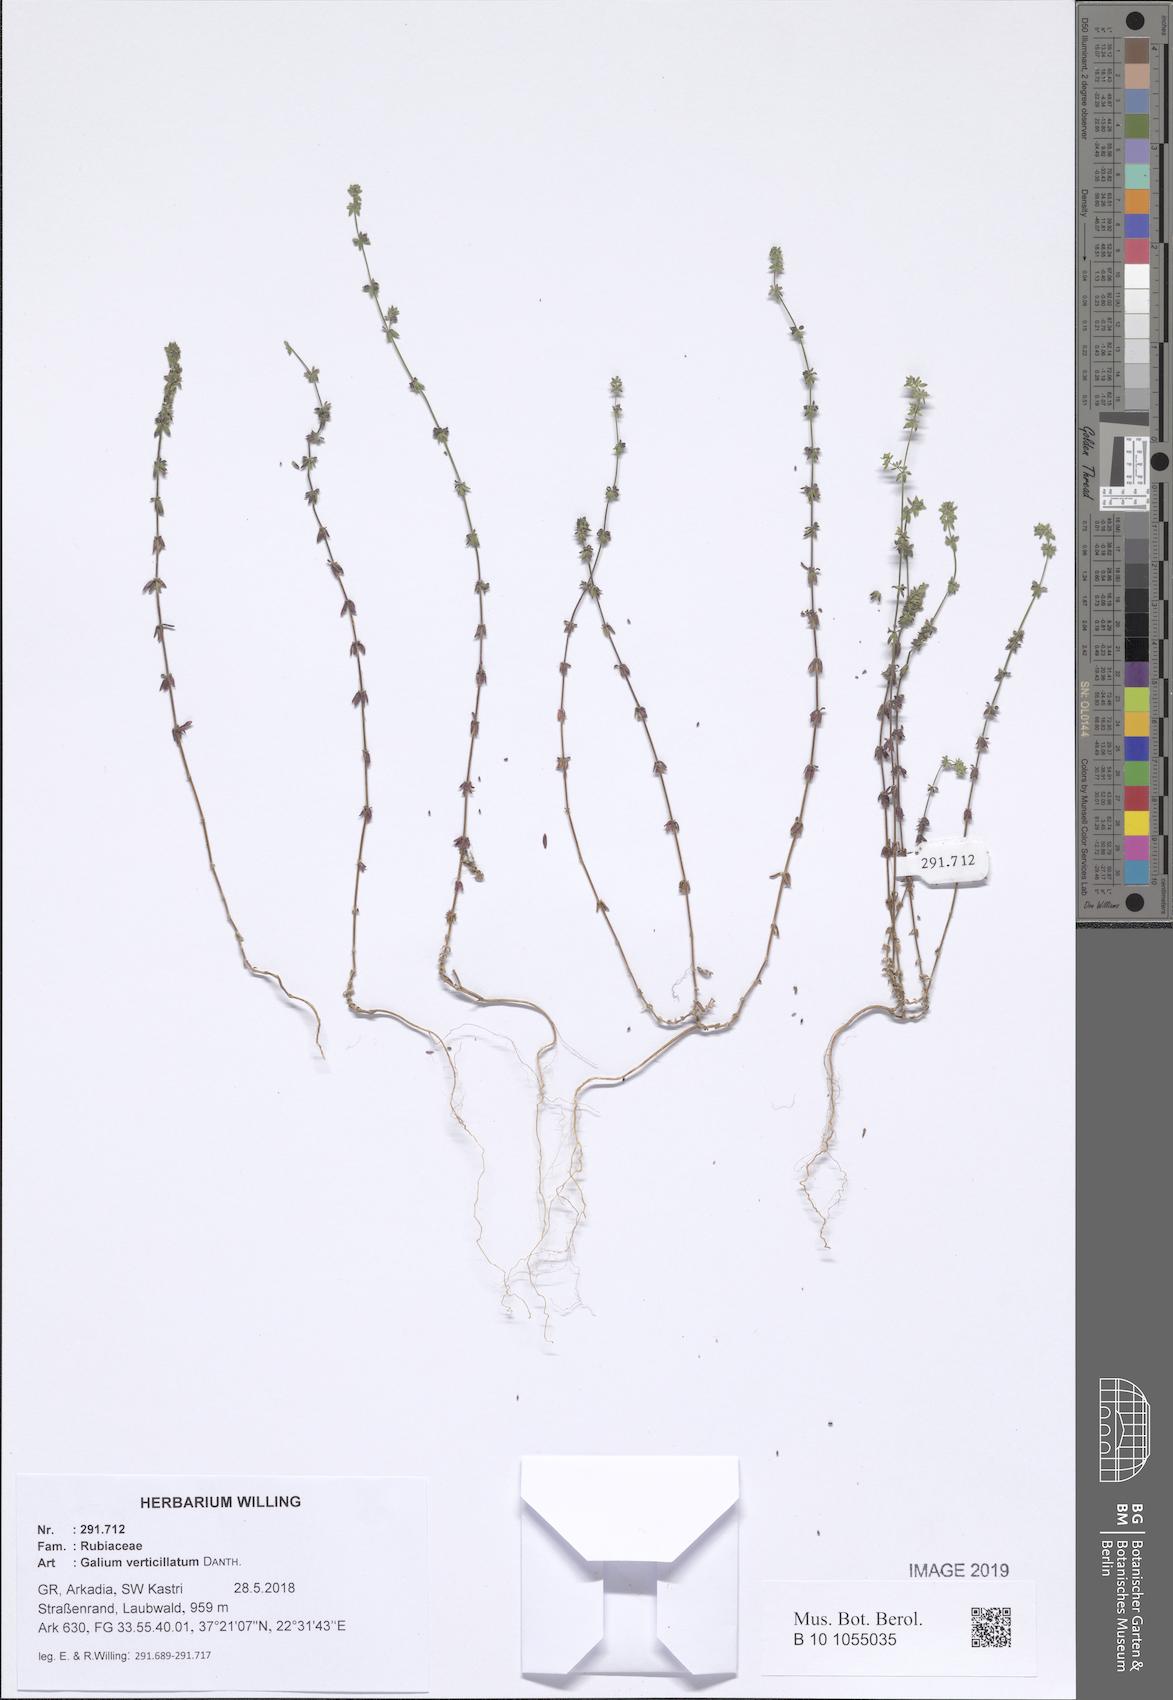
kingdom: Plantae
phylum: Tracheophyta
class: Magnoliopsida
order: Gentianales
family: Rubiaceae
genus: Galium
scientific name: Galium verticillatum
